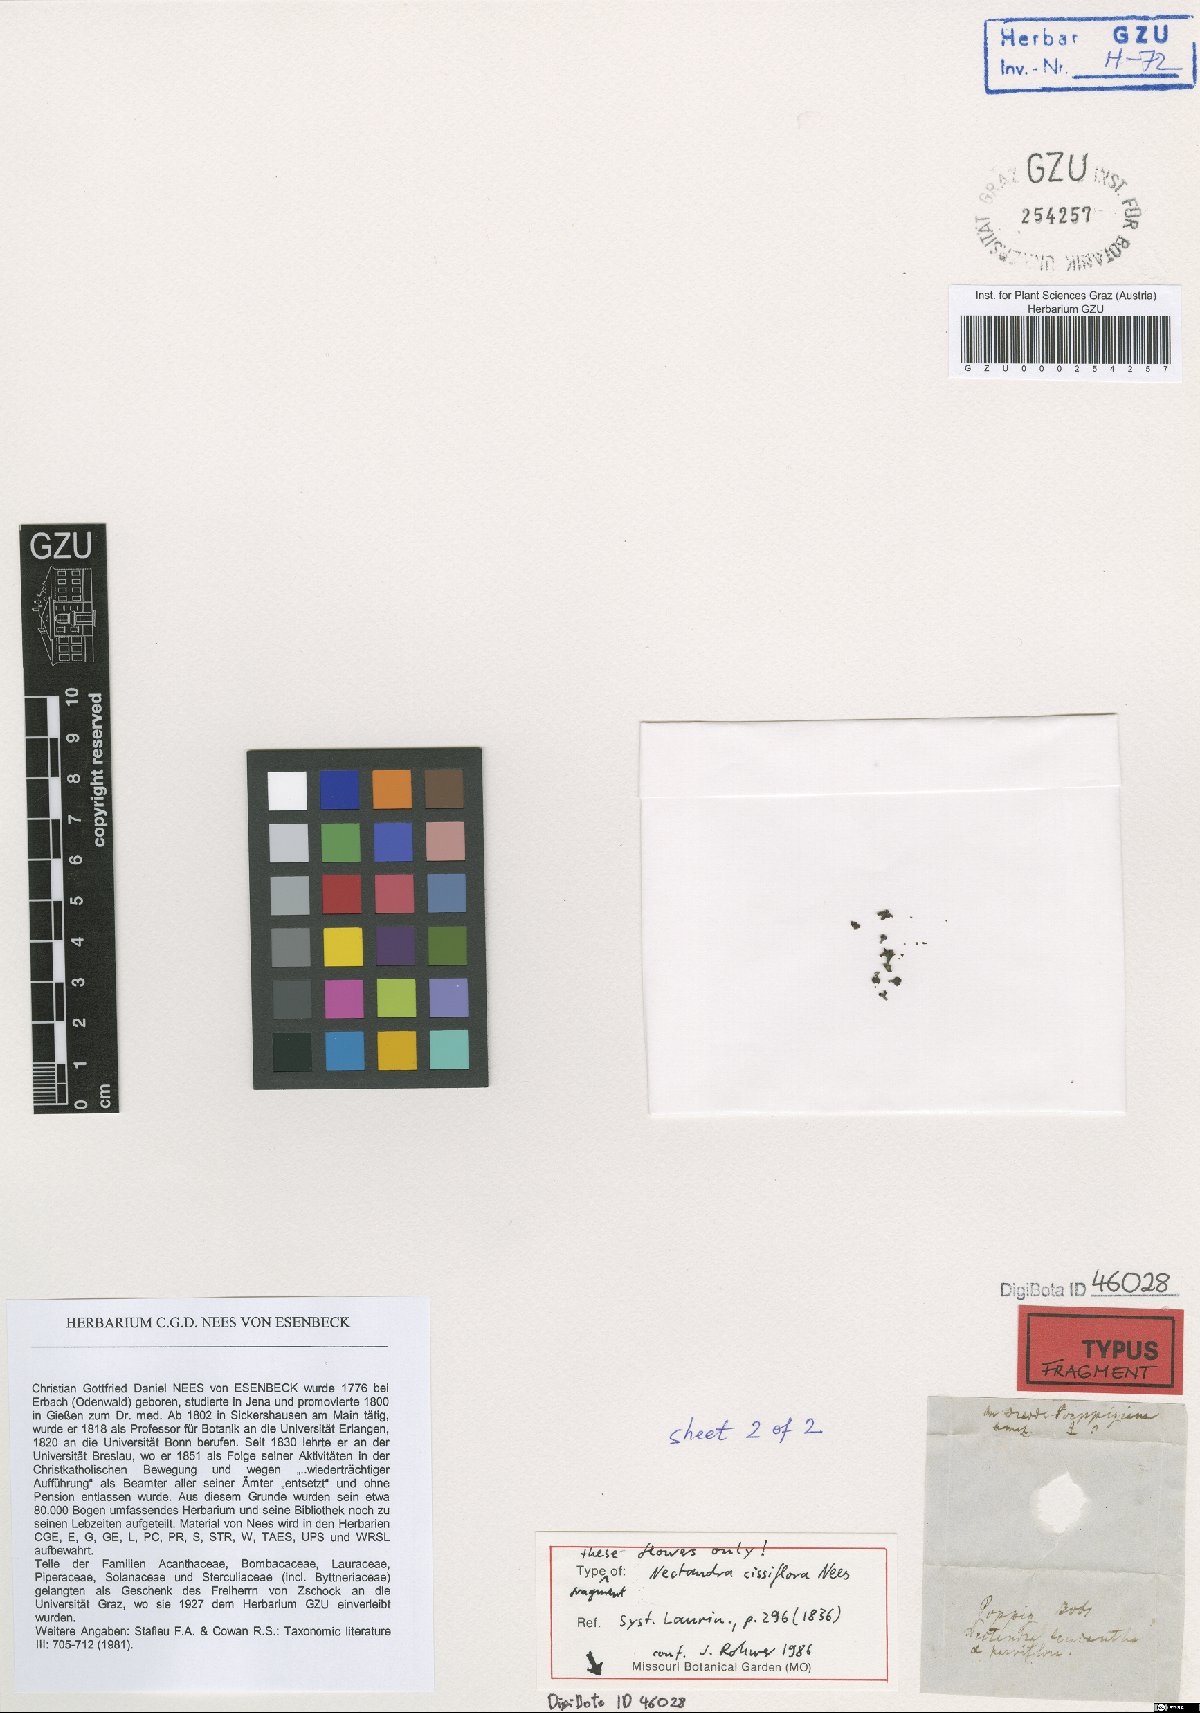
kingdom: Plantae
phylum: Tracheophyta
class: Magnoliopsida
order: Laurales
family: Lauraceae
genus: Nectandra
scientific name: Nectandra cissiflora
